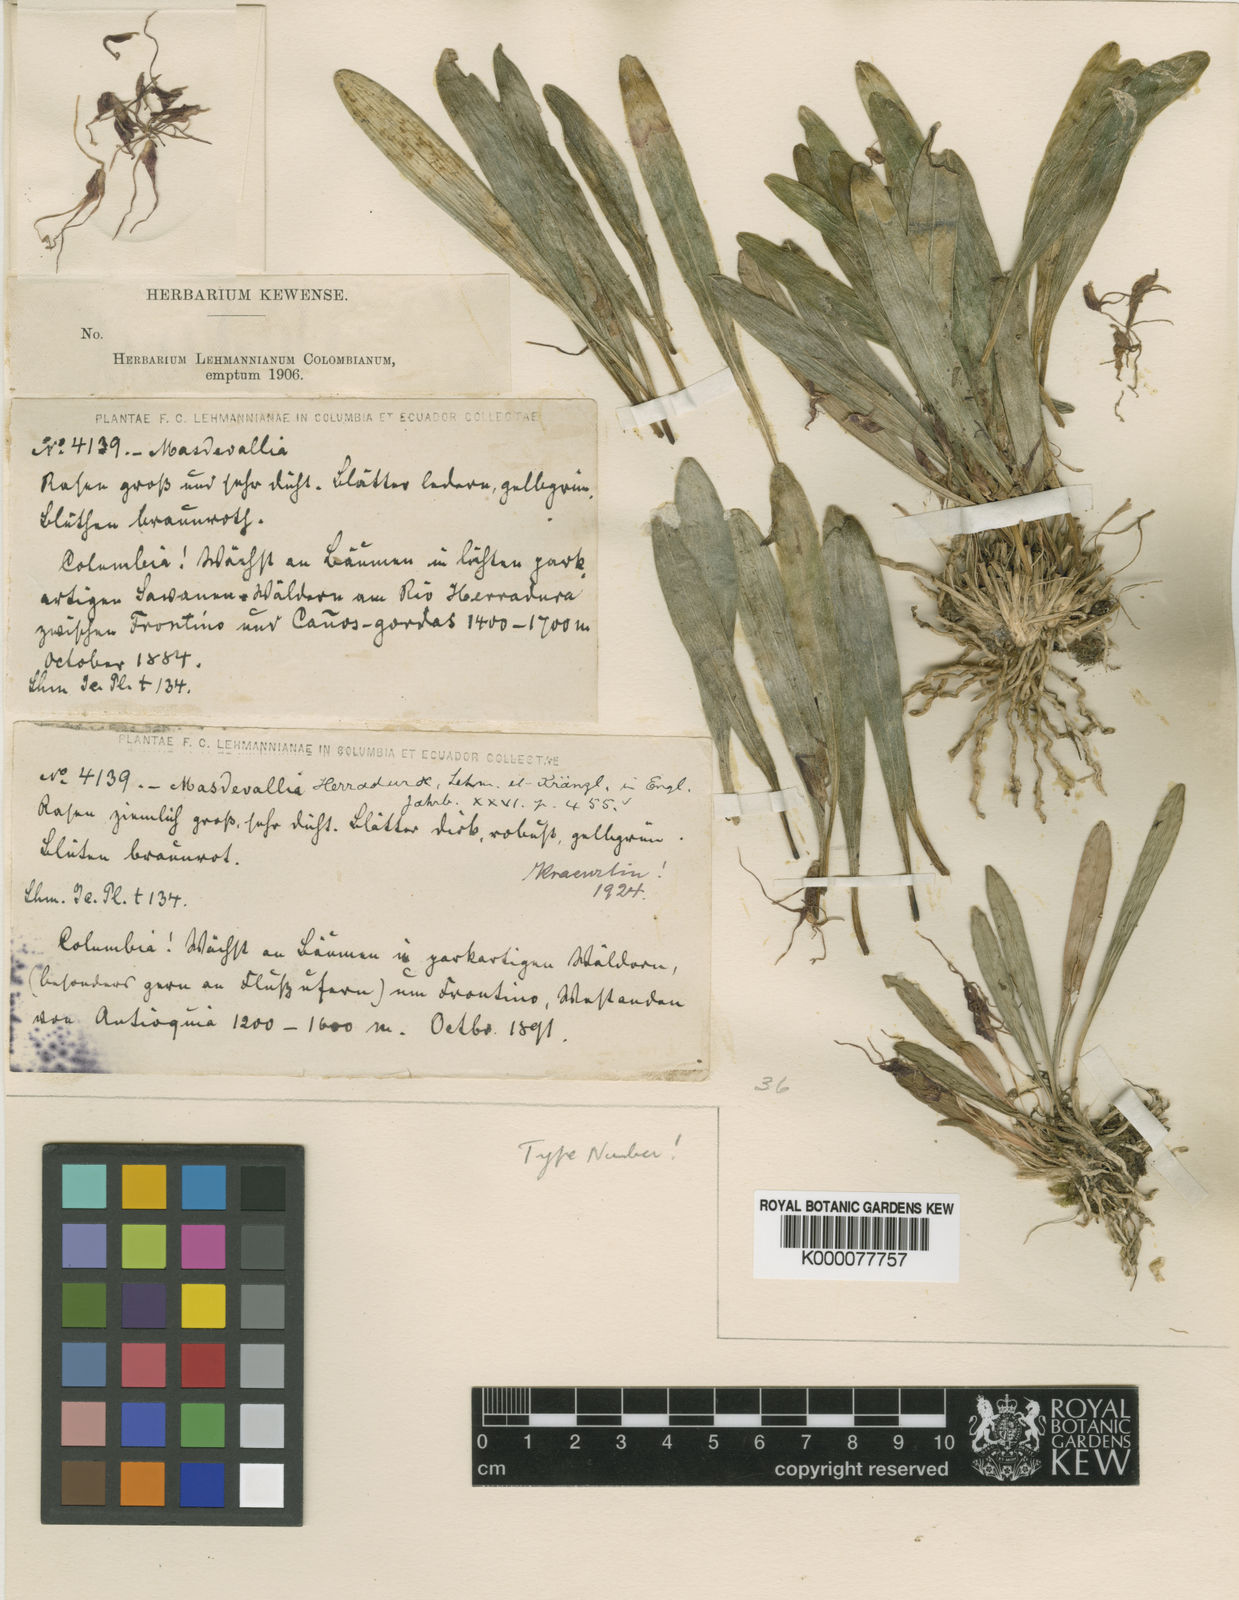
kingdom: Plantae
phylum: Tracheophyta
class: Liliopsida
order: Asparagales
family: Orchidaceae
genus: Masdevallia
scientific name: Masdevallia herradurae
